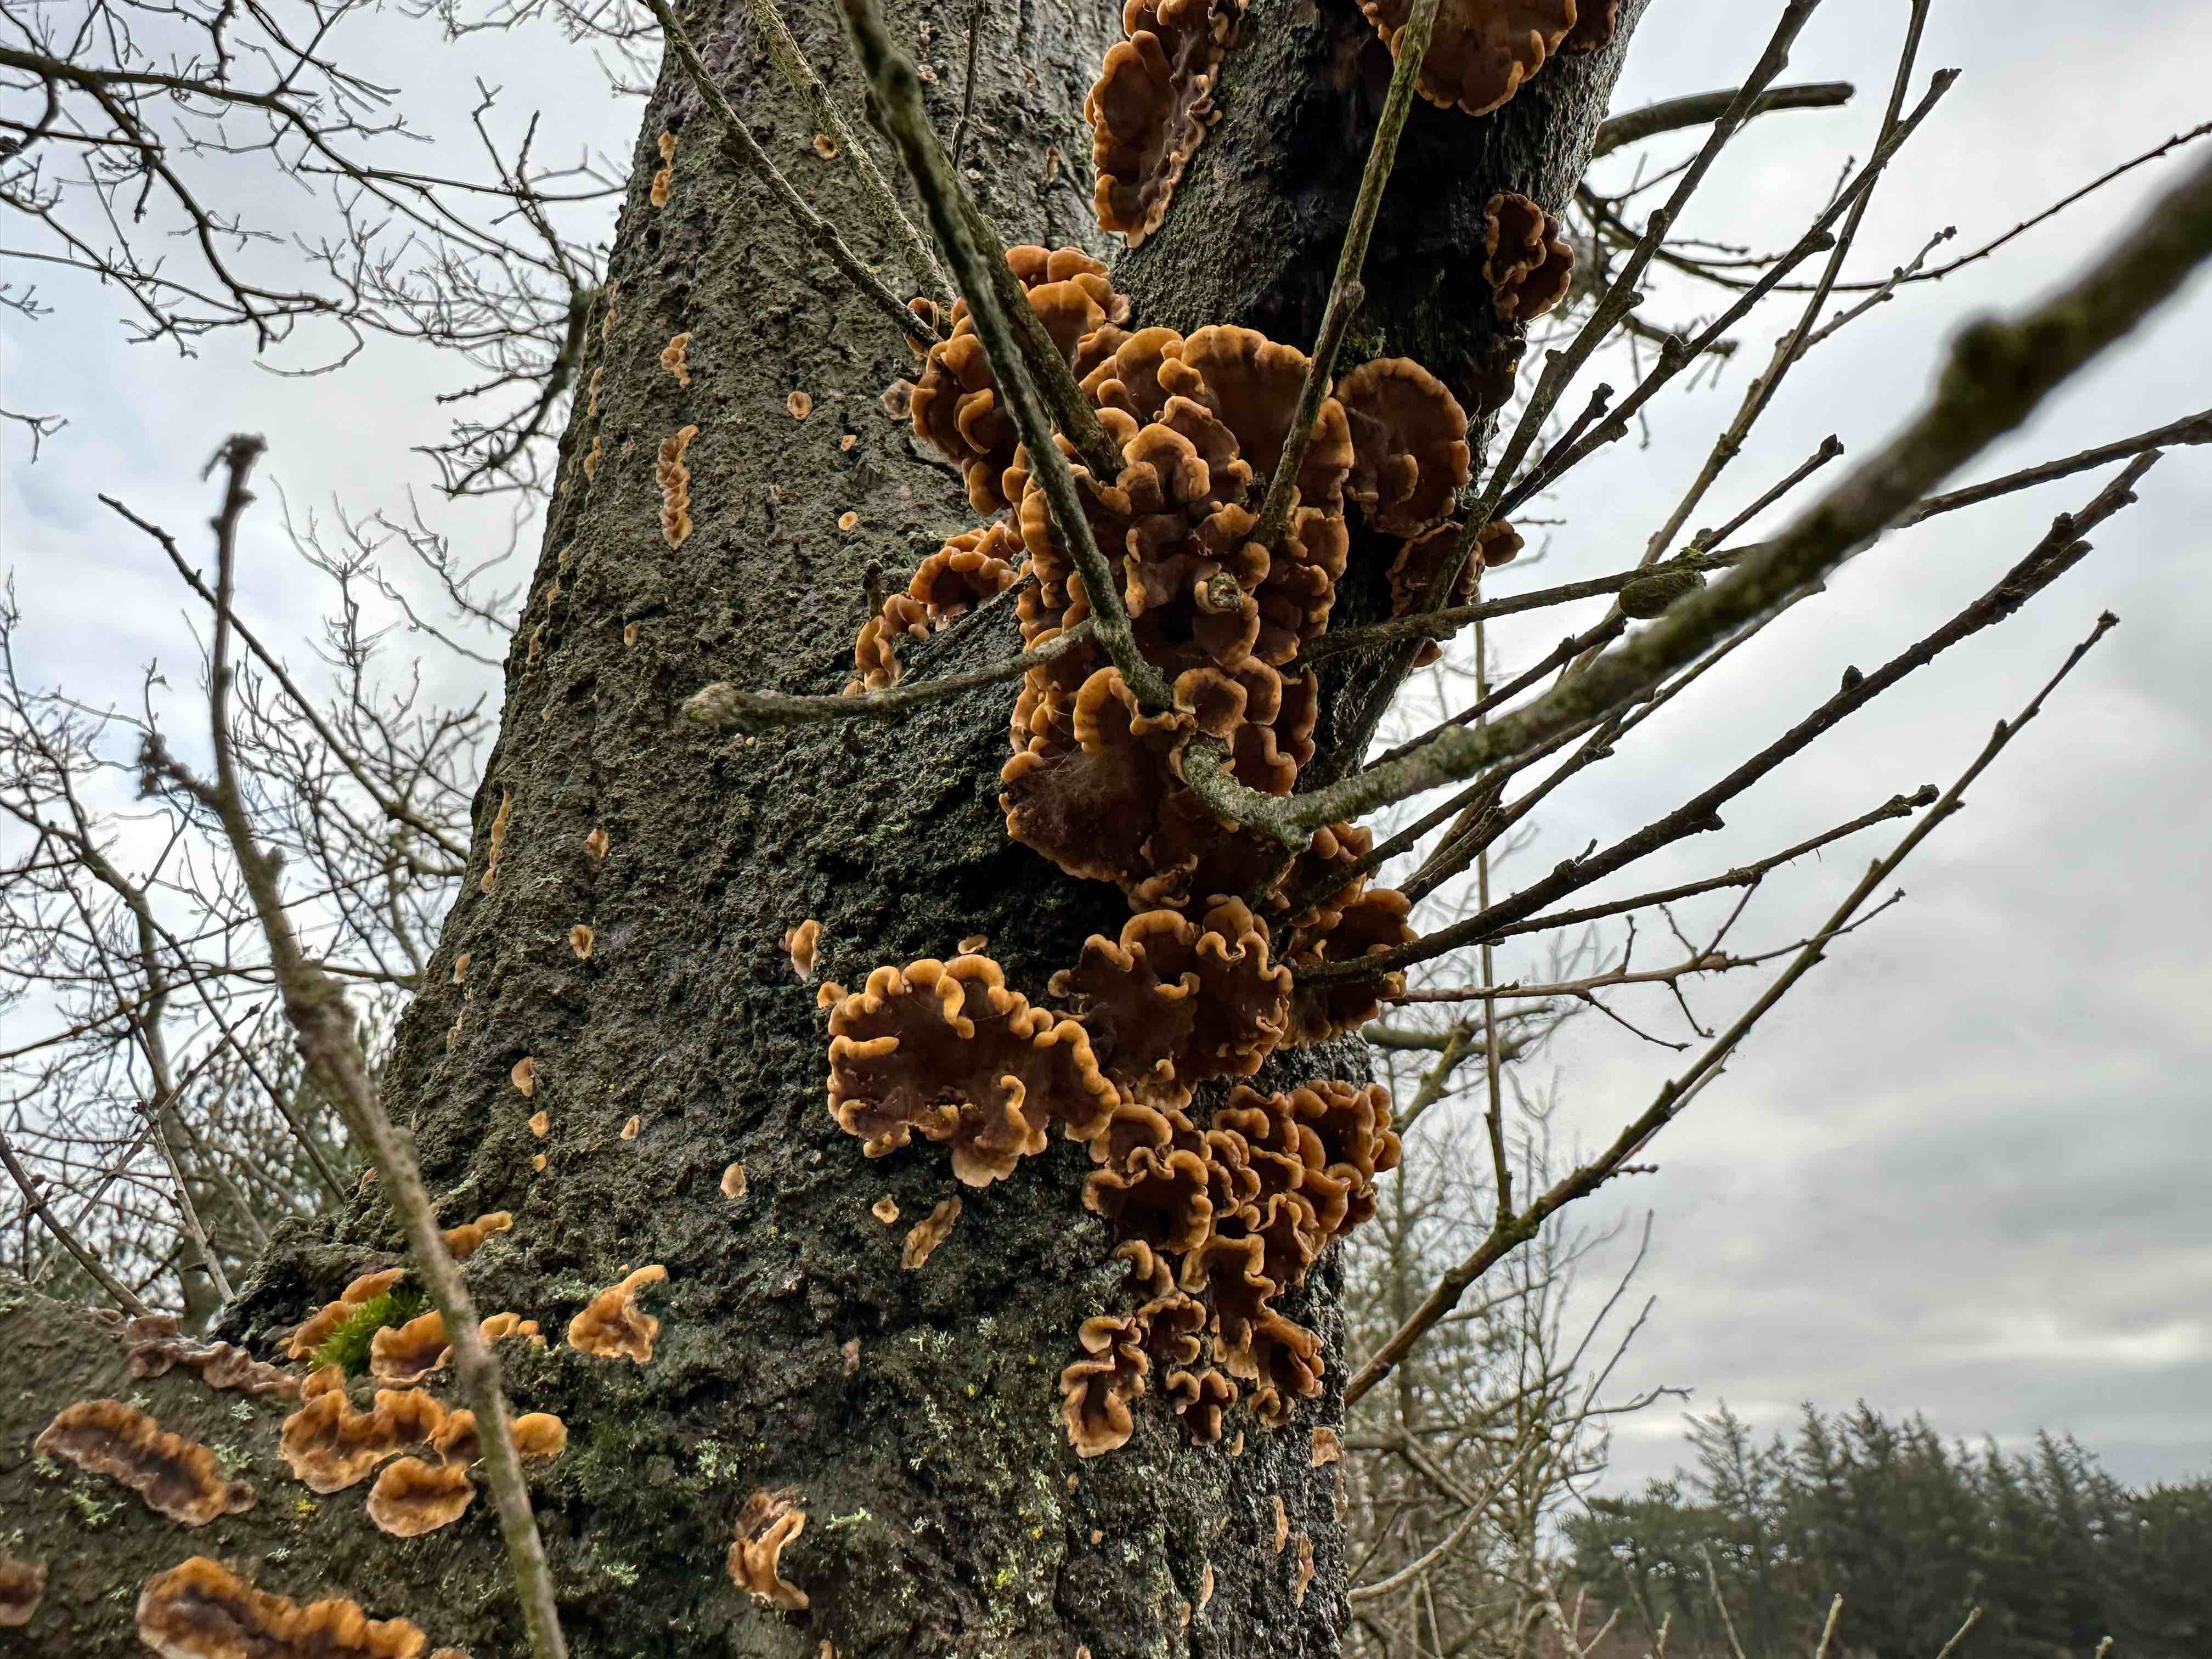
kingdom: Fungi
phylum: Basidiomycota
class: Agaricomycetes
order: Russulales
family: Stereaceae
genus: Stereum
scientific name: Stereum hirsutum
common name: håret lædersvamp
